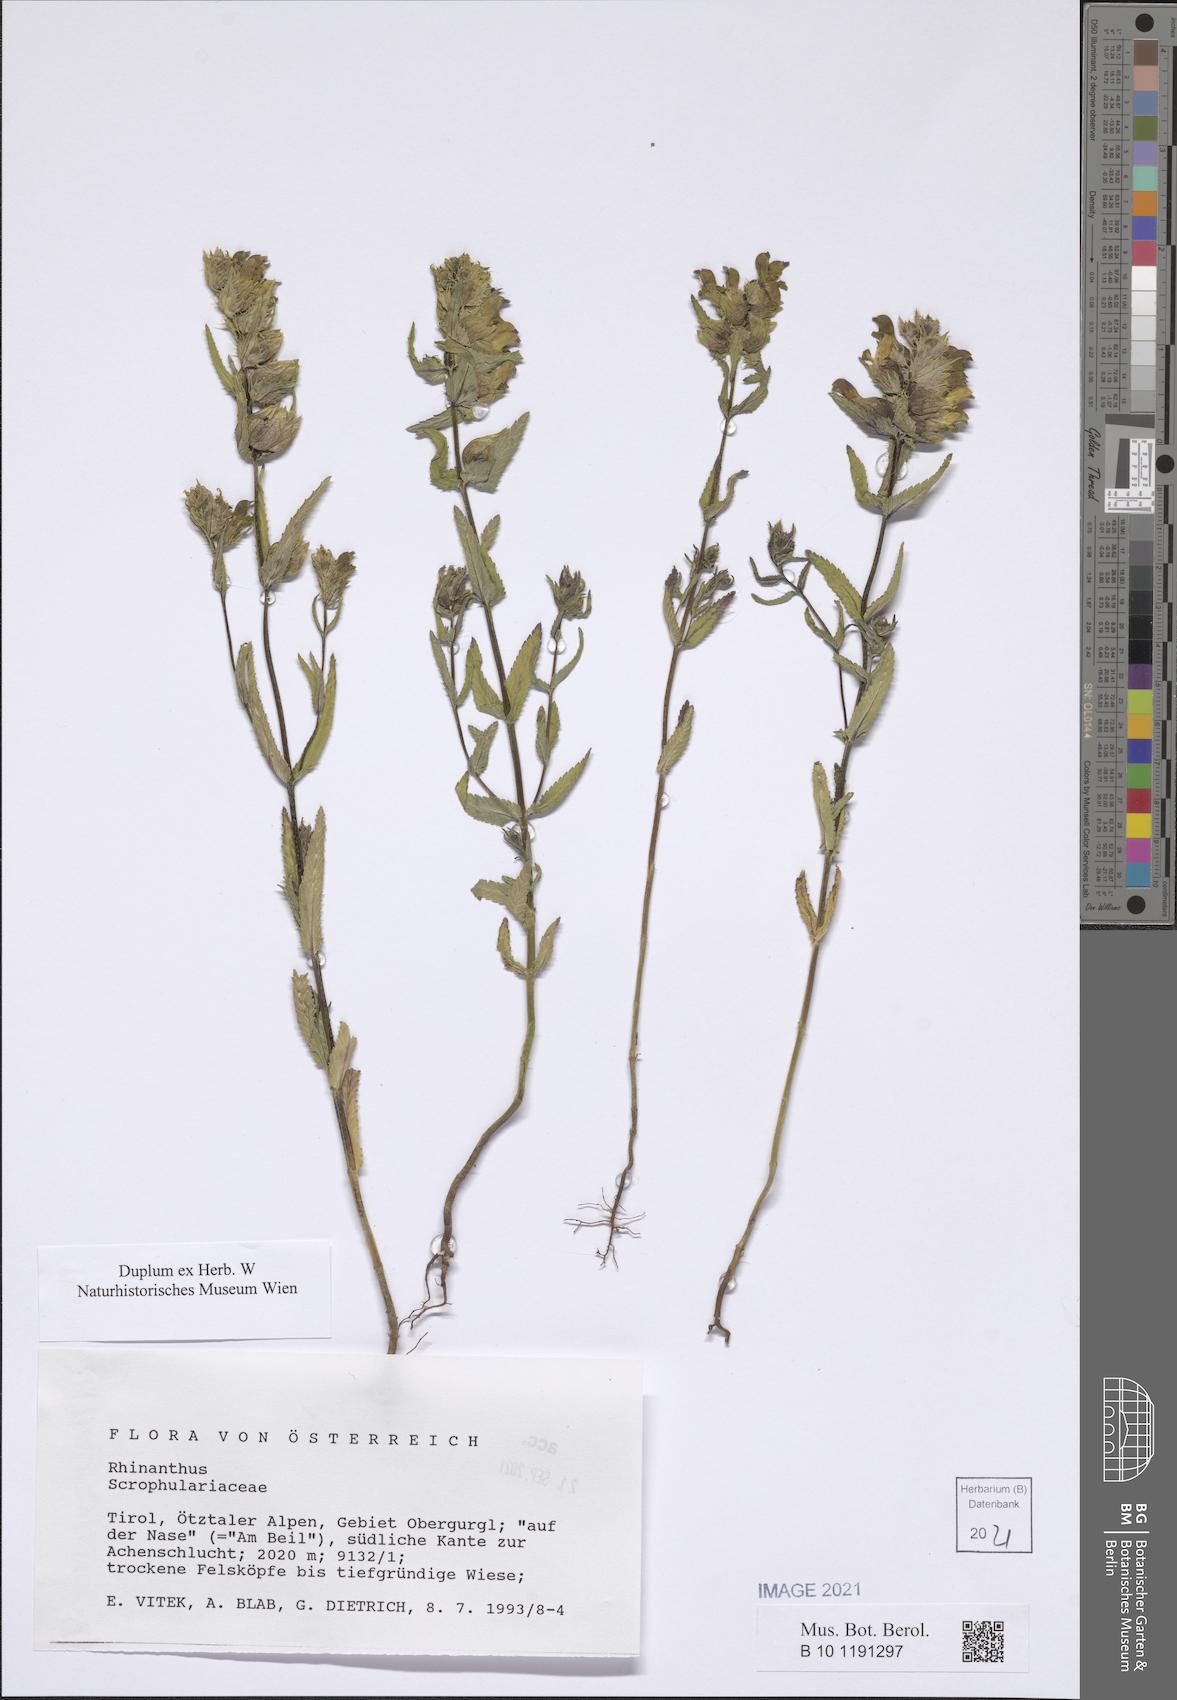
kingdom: Plantae
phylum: Tracheophyta
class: Magnoliopsida
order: Lamiales
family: Orobanchaceae
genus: Rhinanthus
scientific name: Rhinanthus
